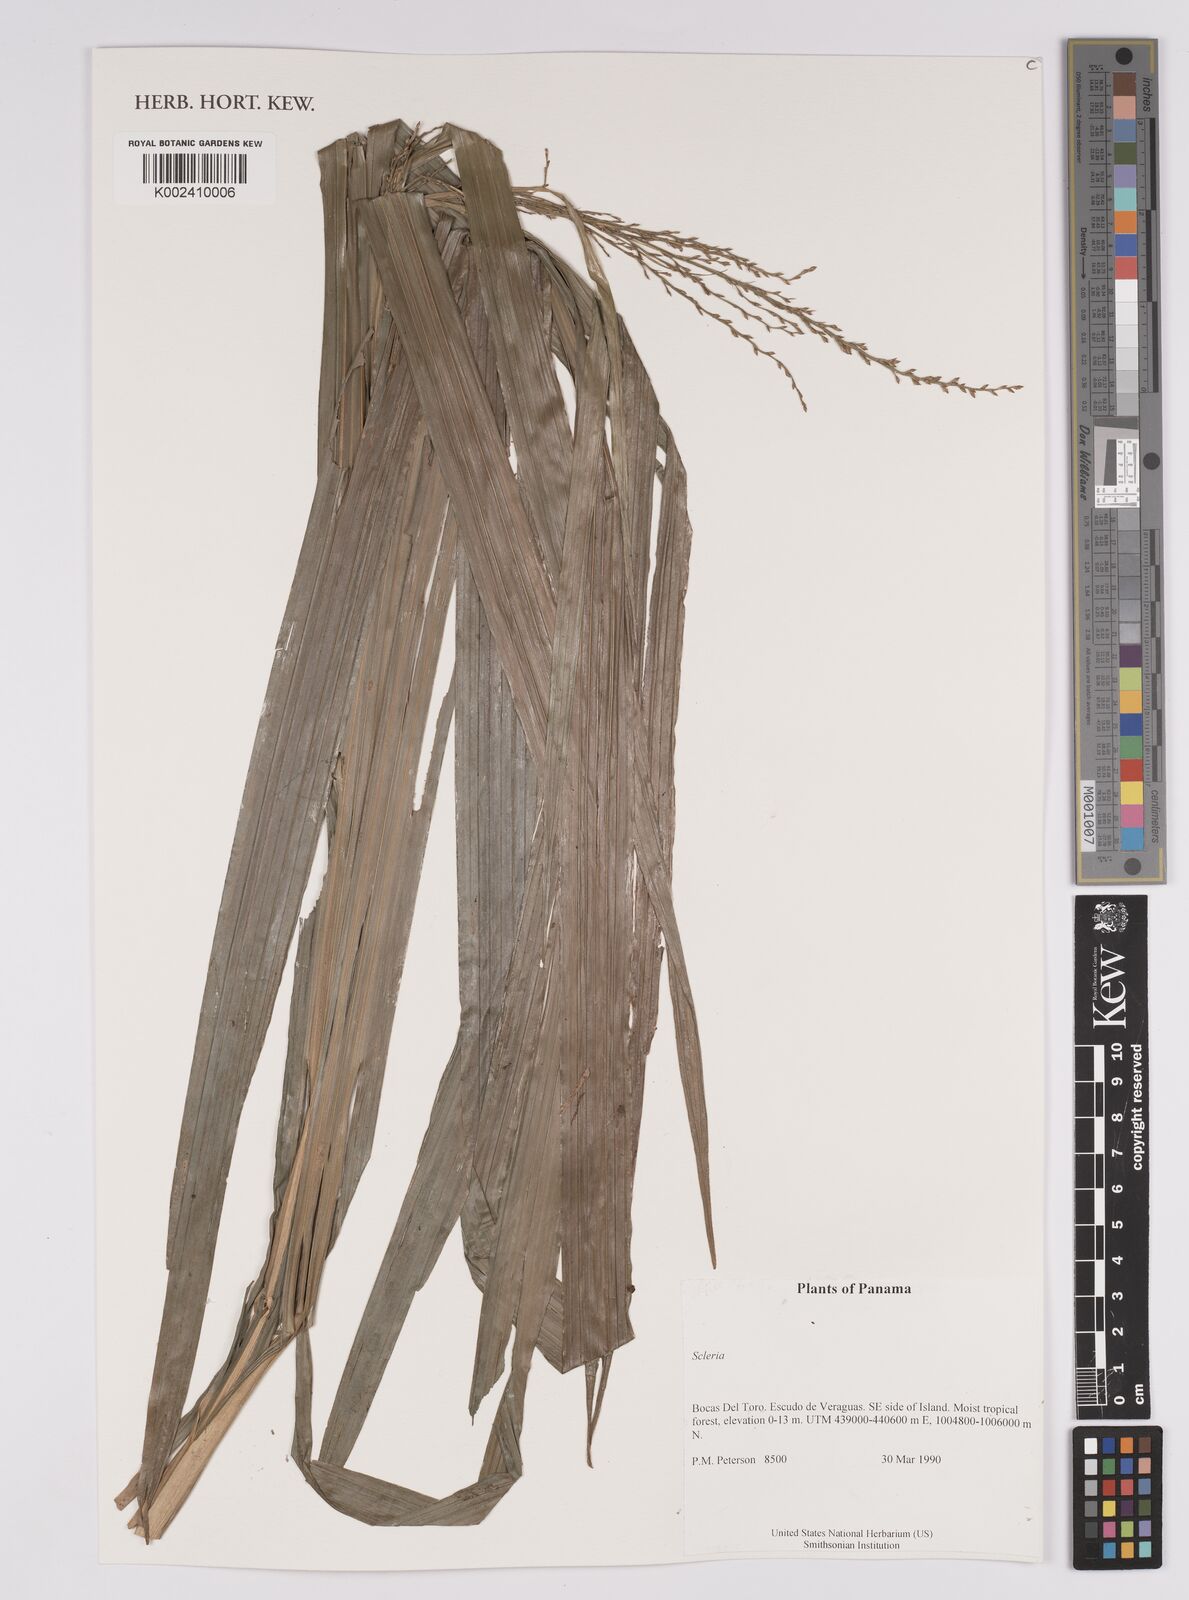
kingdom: Plantae
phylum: Tracheophyta
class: Liliopsida
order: Poales
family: Cyperaceae
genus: Scleria
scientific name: Scleria
